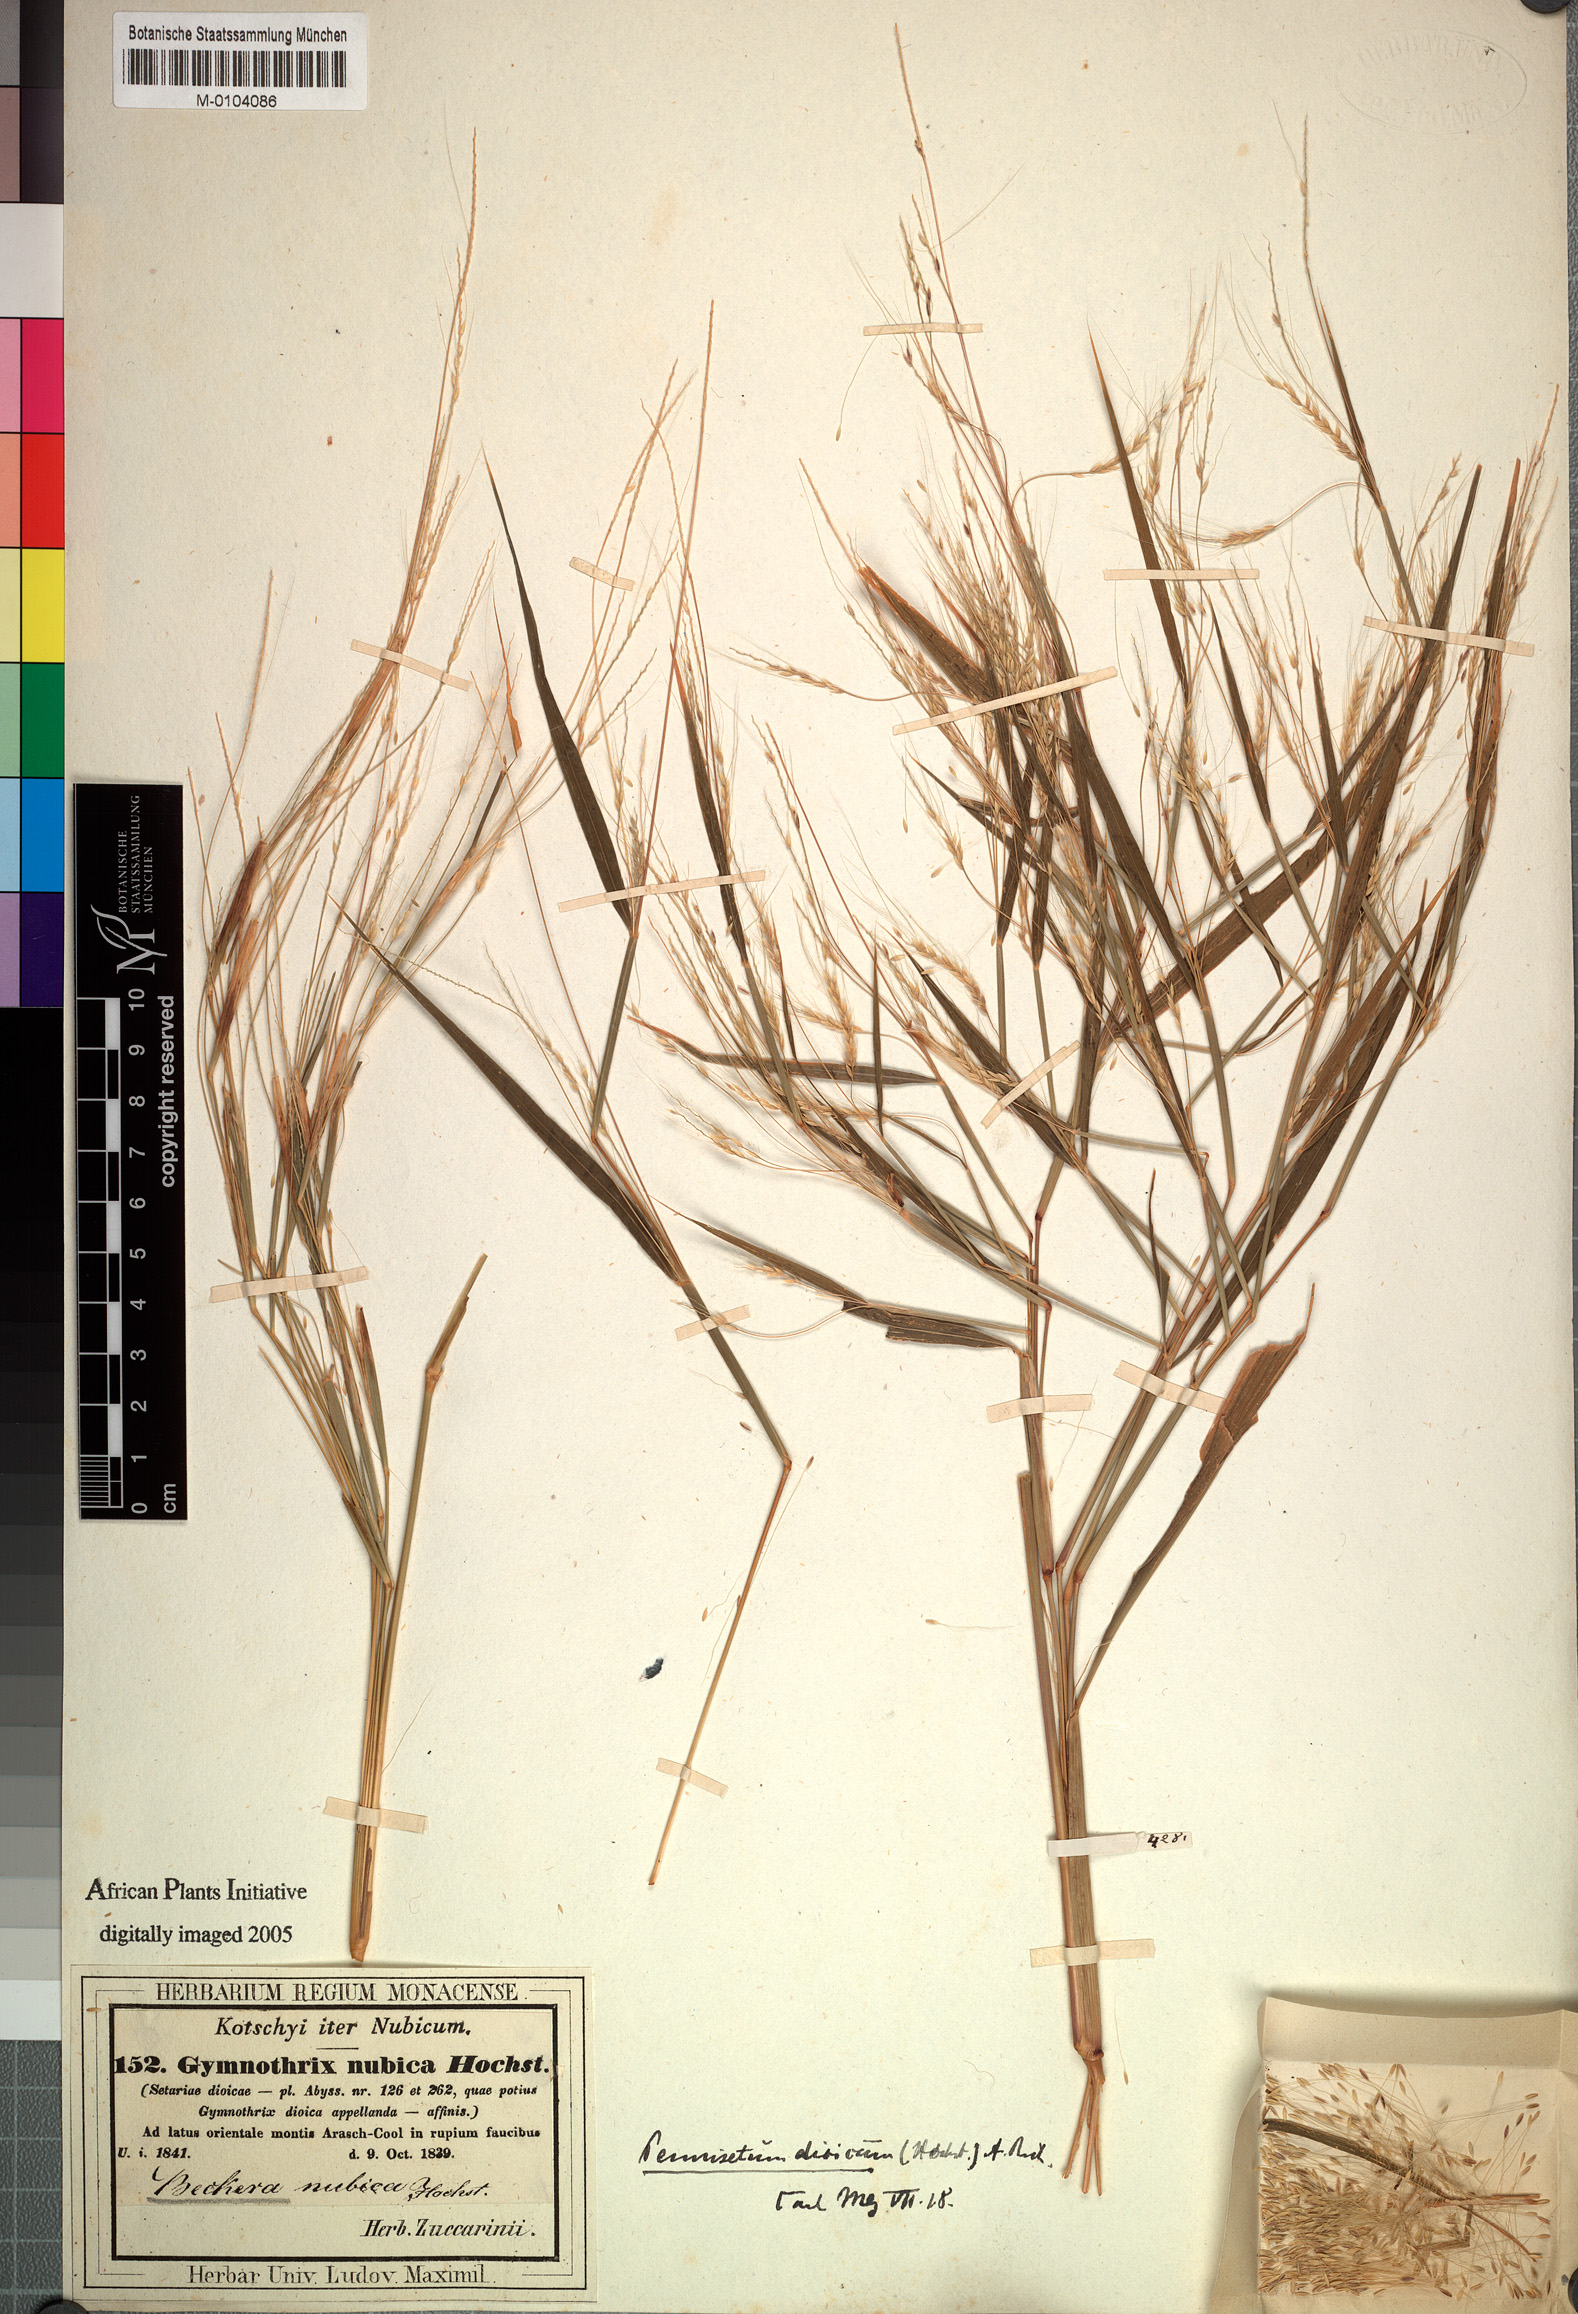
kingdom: Plantae
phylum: Tracheophyta
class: Liliopsida
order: Poales
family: Poaceae
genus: Cenchrus
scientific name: Cenchrus nubicus
